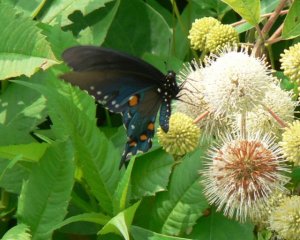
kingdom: Animalia
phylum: Arthropoda
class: Insecta
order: Lepidoptera
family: Papilionidae
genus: Battus
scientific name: Battus philenor
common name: Pipevine Swallowtail
